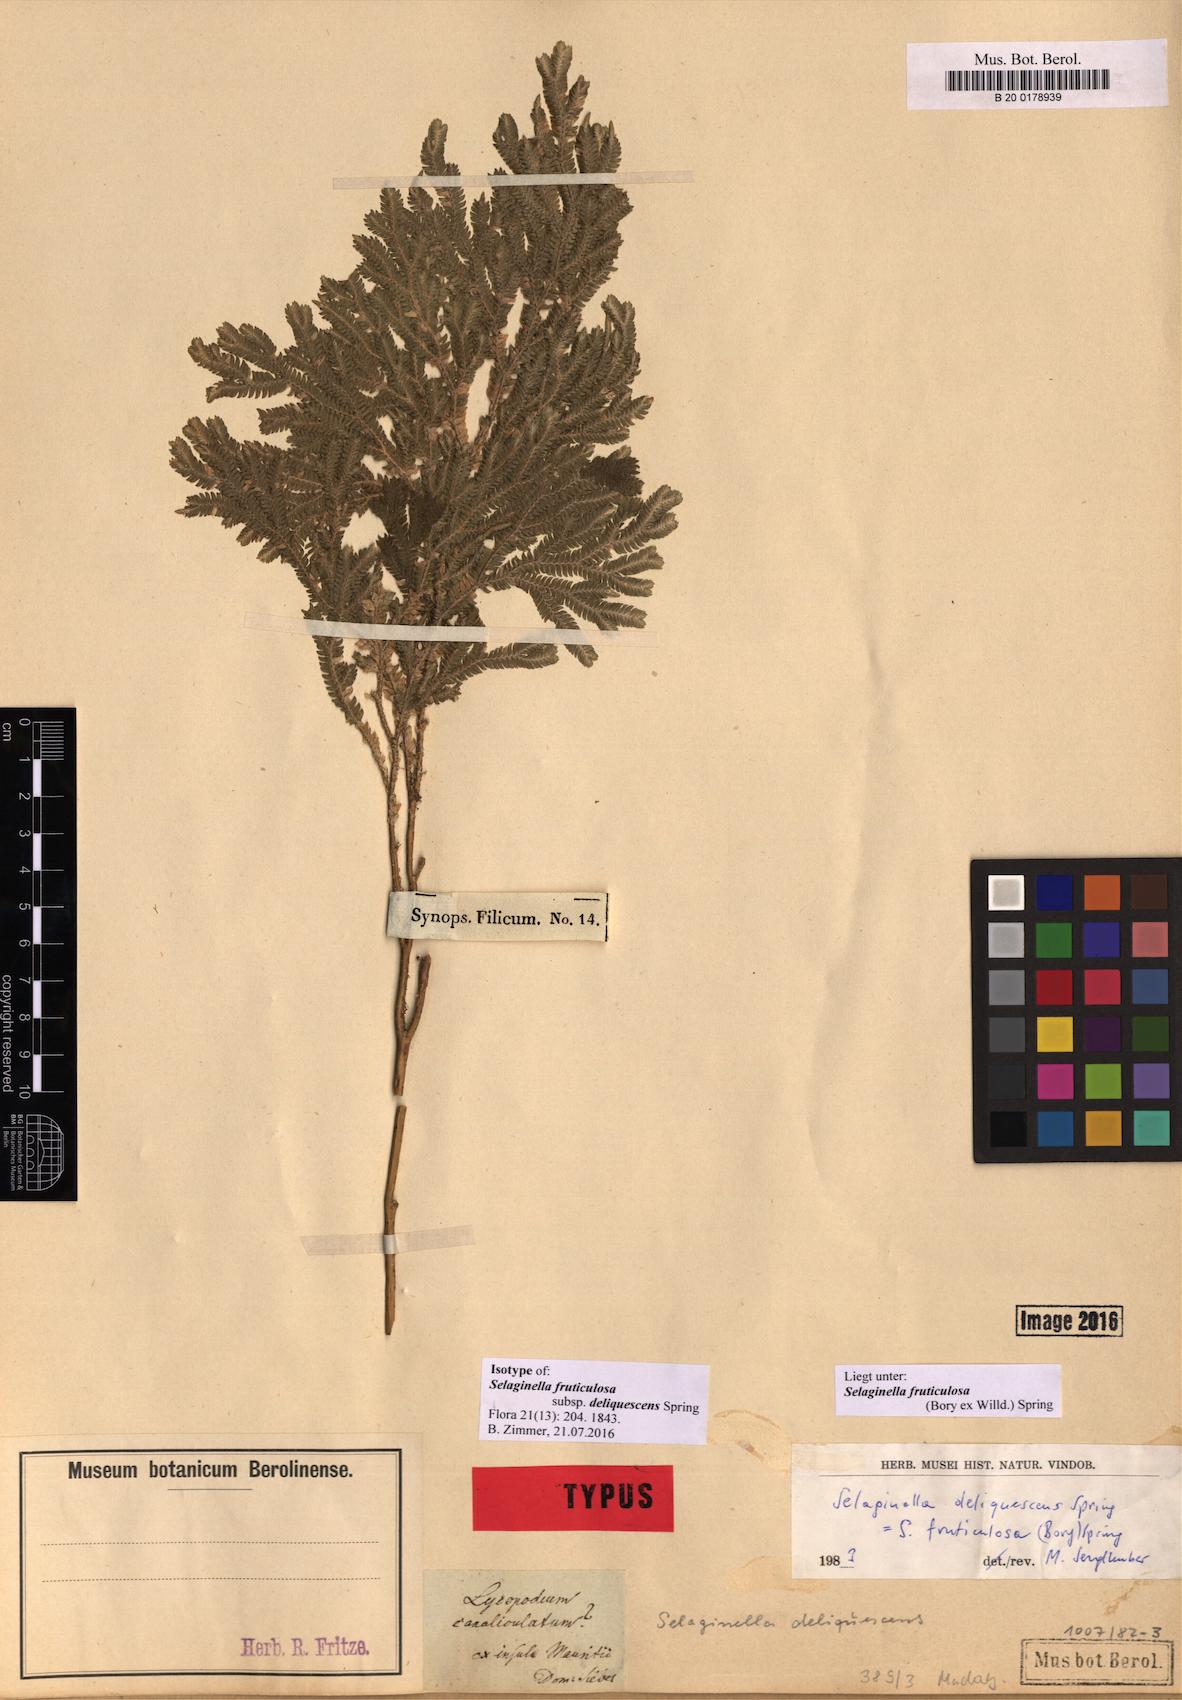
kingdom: Plantae
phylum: Tracheophyta
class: Lycopodiopsida
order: Selaginellales
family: Selaginellaceae
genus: Selaginella
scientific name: Selaginella fruticulosa
